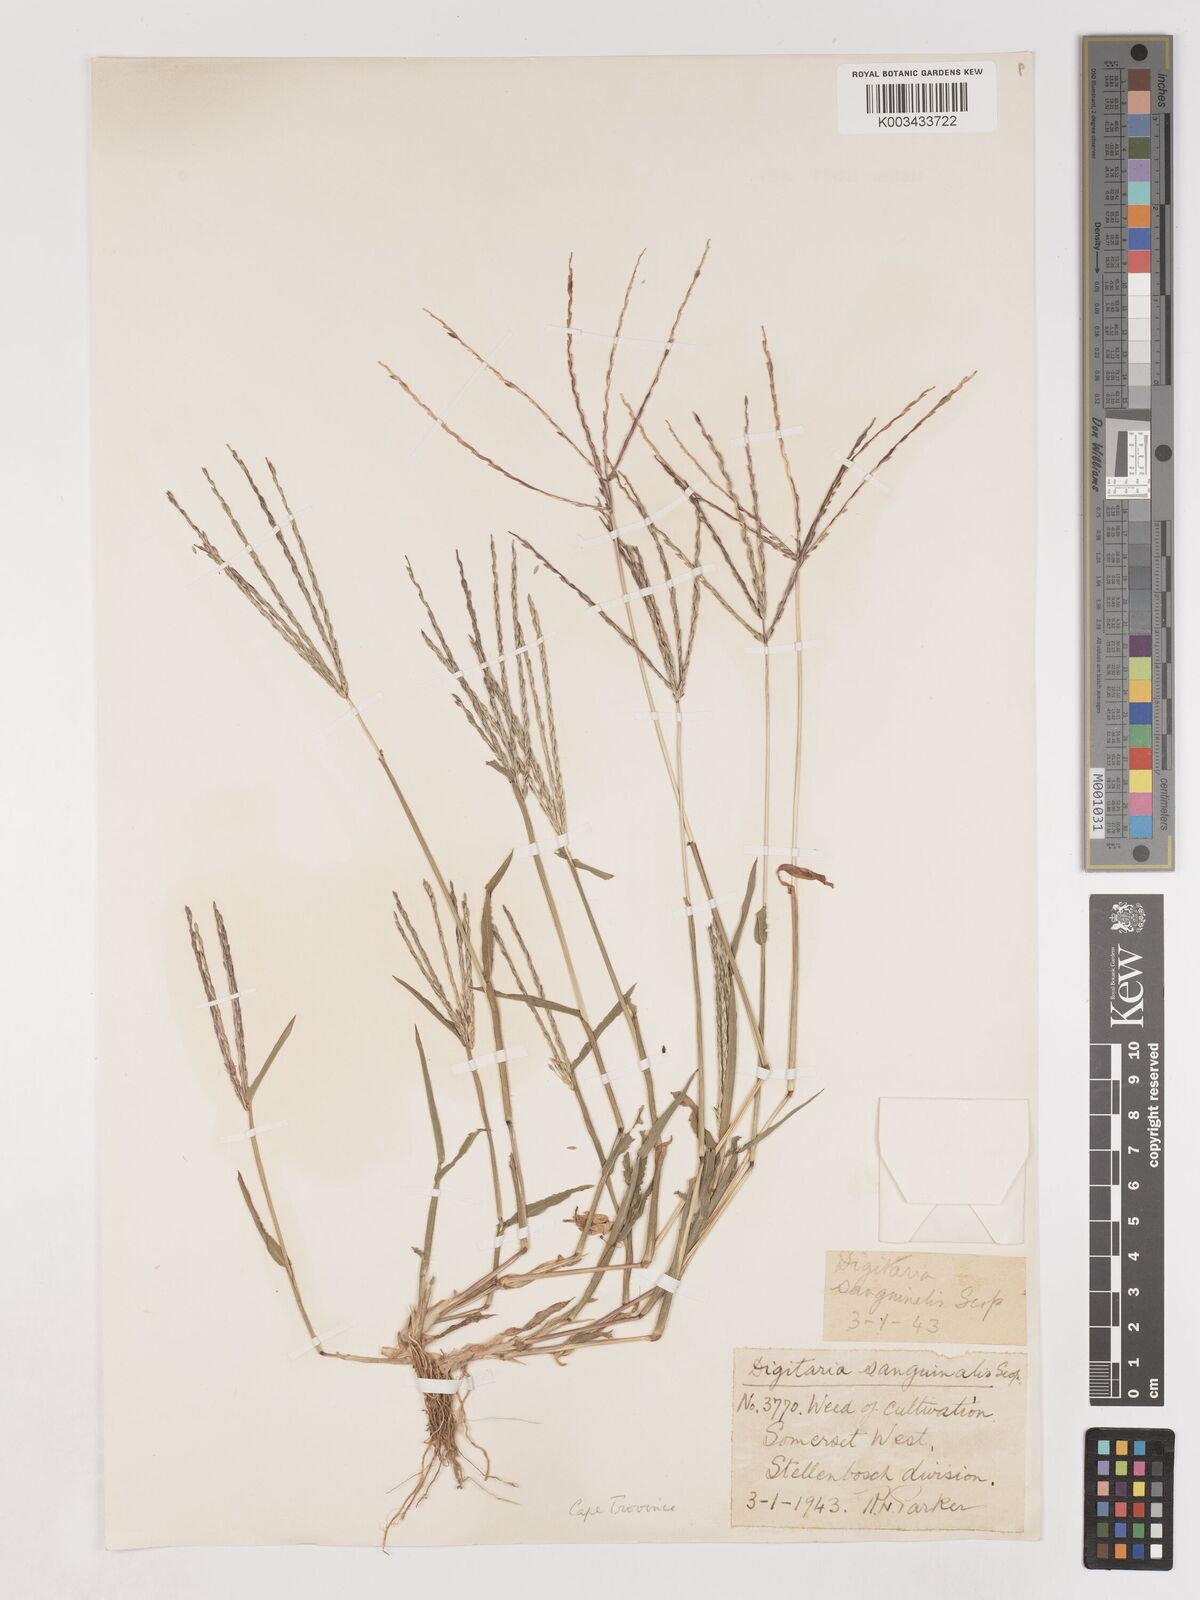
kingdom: Plantae
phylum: Tracheophyta
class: Liliopsida
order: Poales
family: Poaceae
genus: Digitaria
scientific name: Digitaria sanguinalis
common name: Hairy crabgrass
